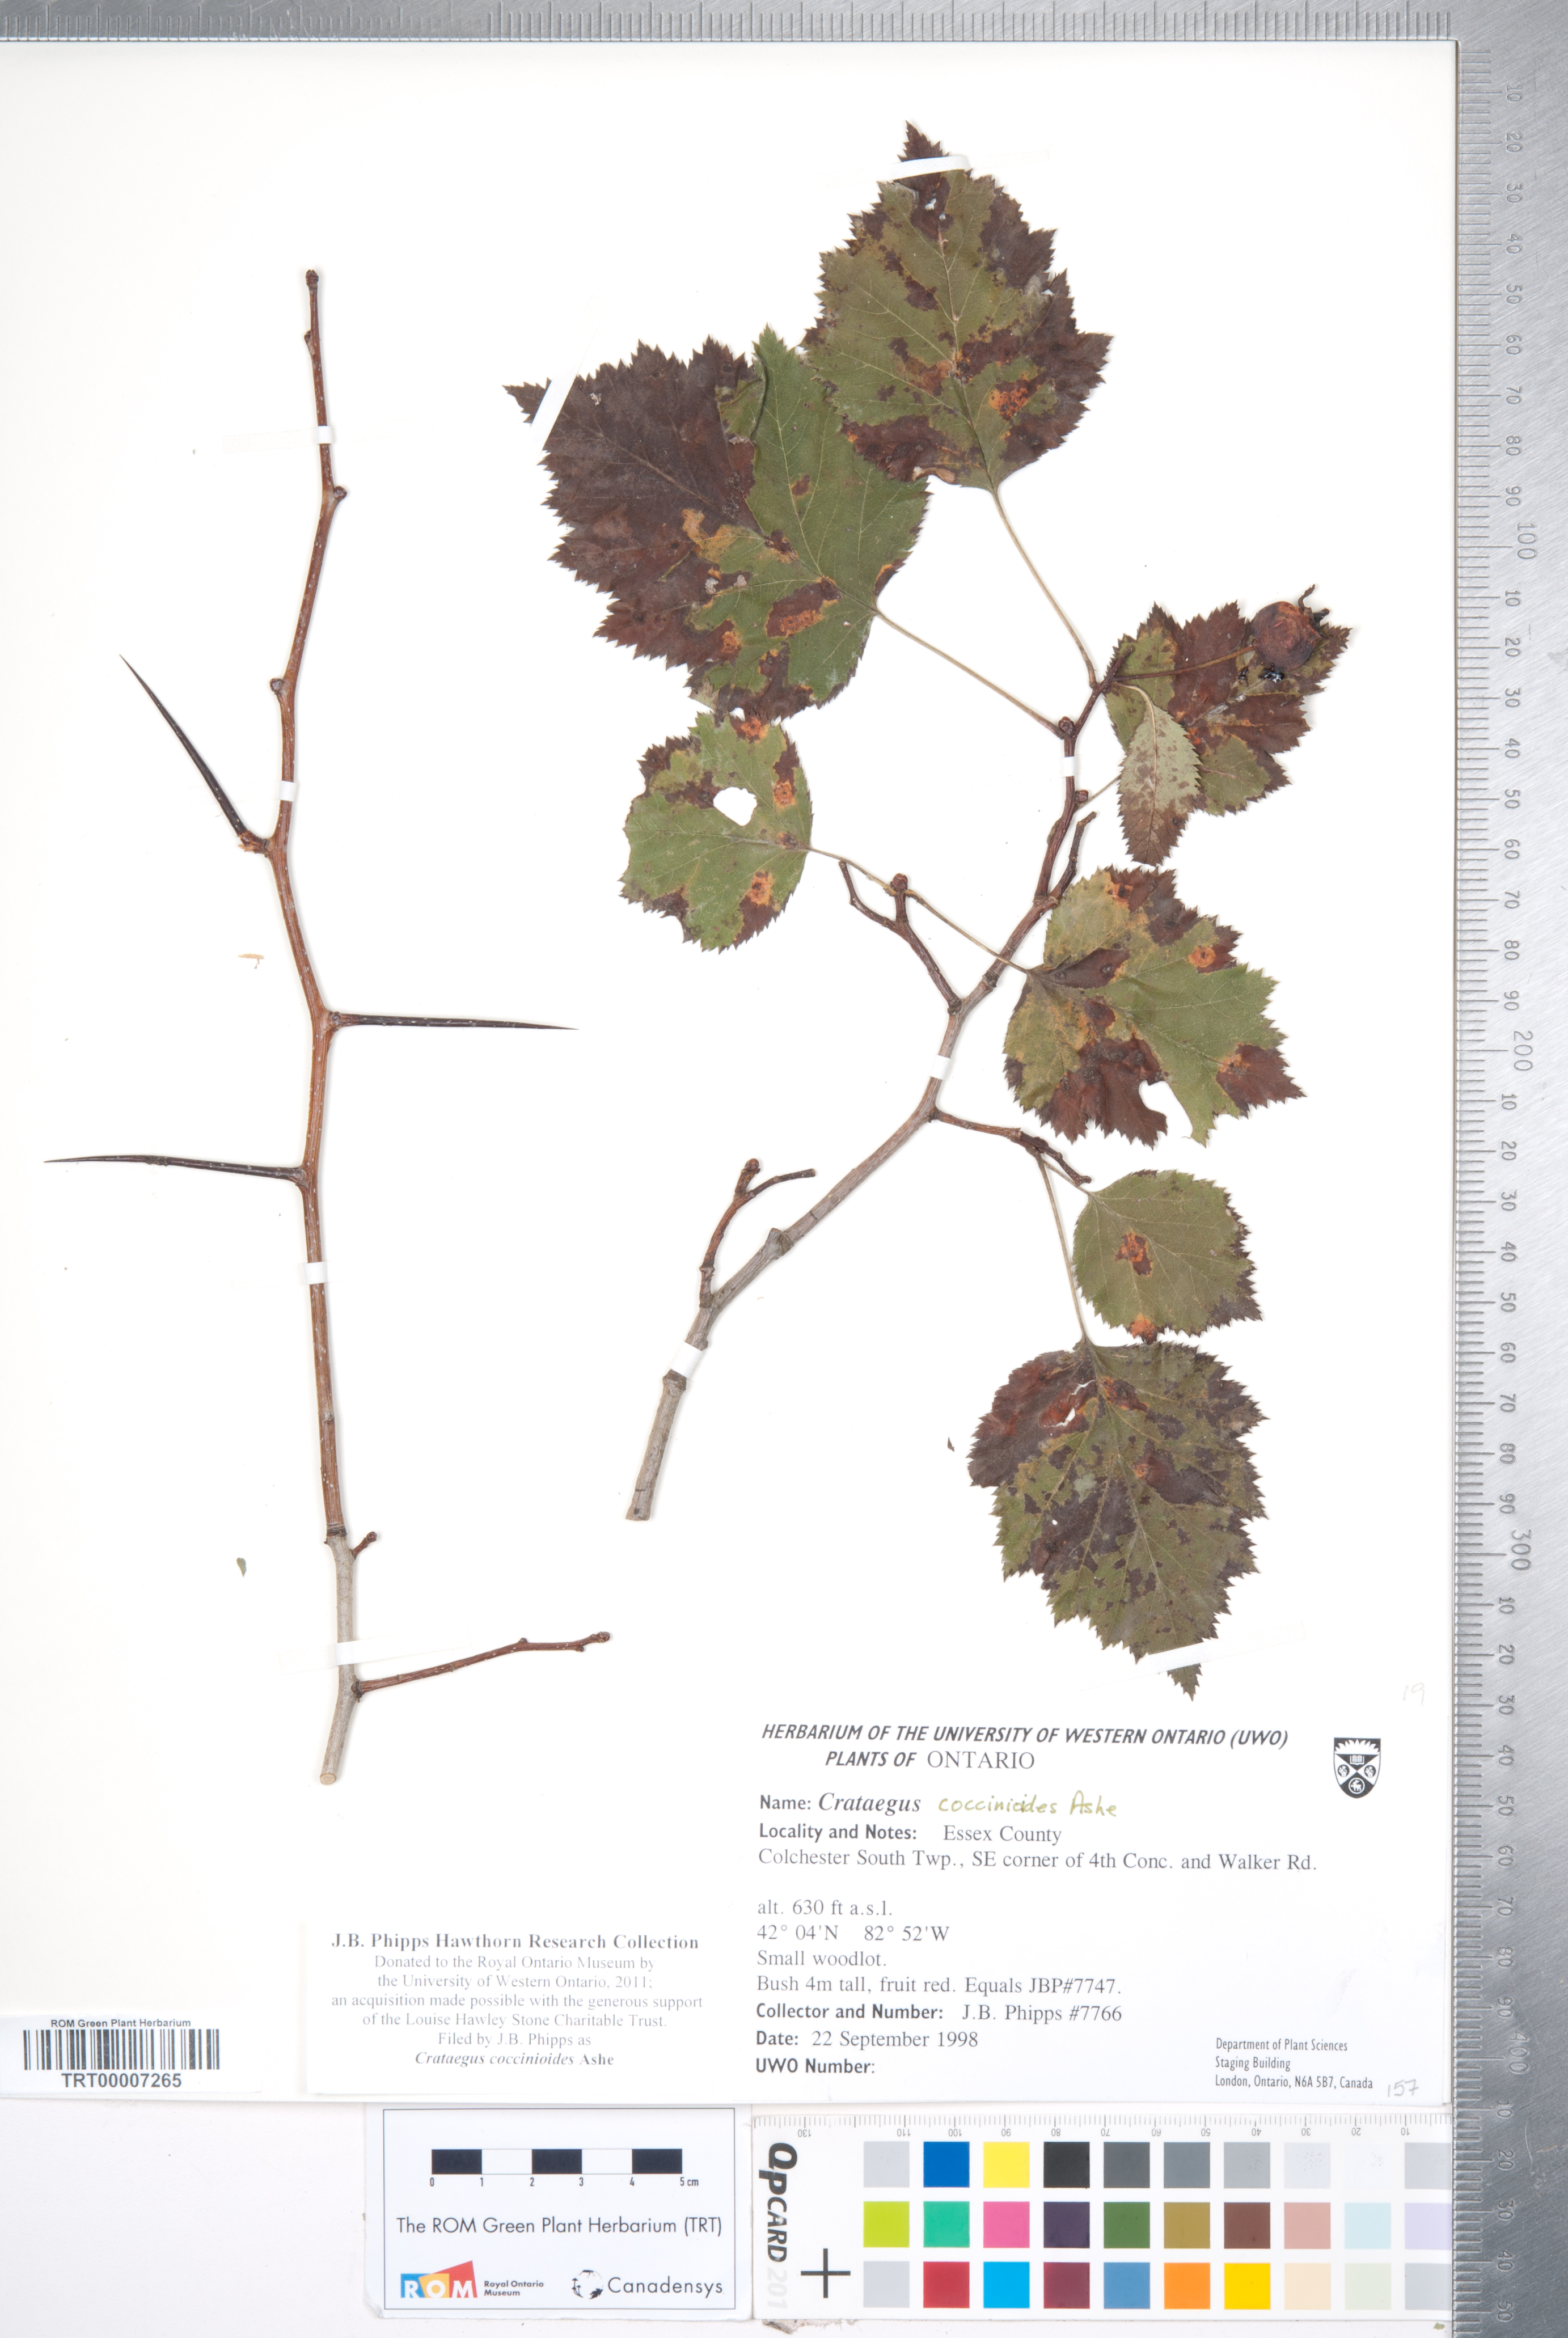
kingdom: Plantae
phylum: Tracheophyta
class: Magnoliopsida
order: Rosales
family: Rosaceae
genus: Crataegus
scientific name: Crataegus coccinioides
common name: Large-flowered cockspurthorn
